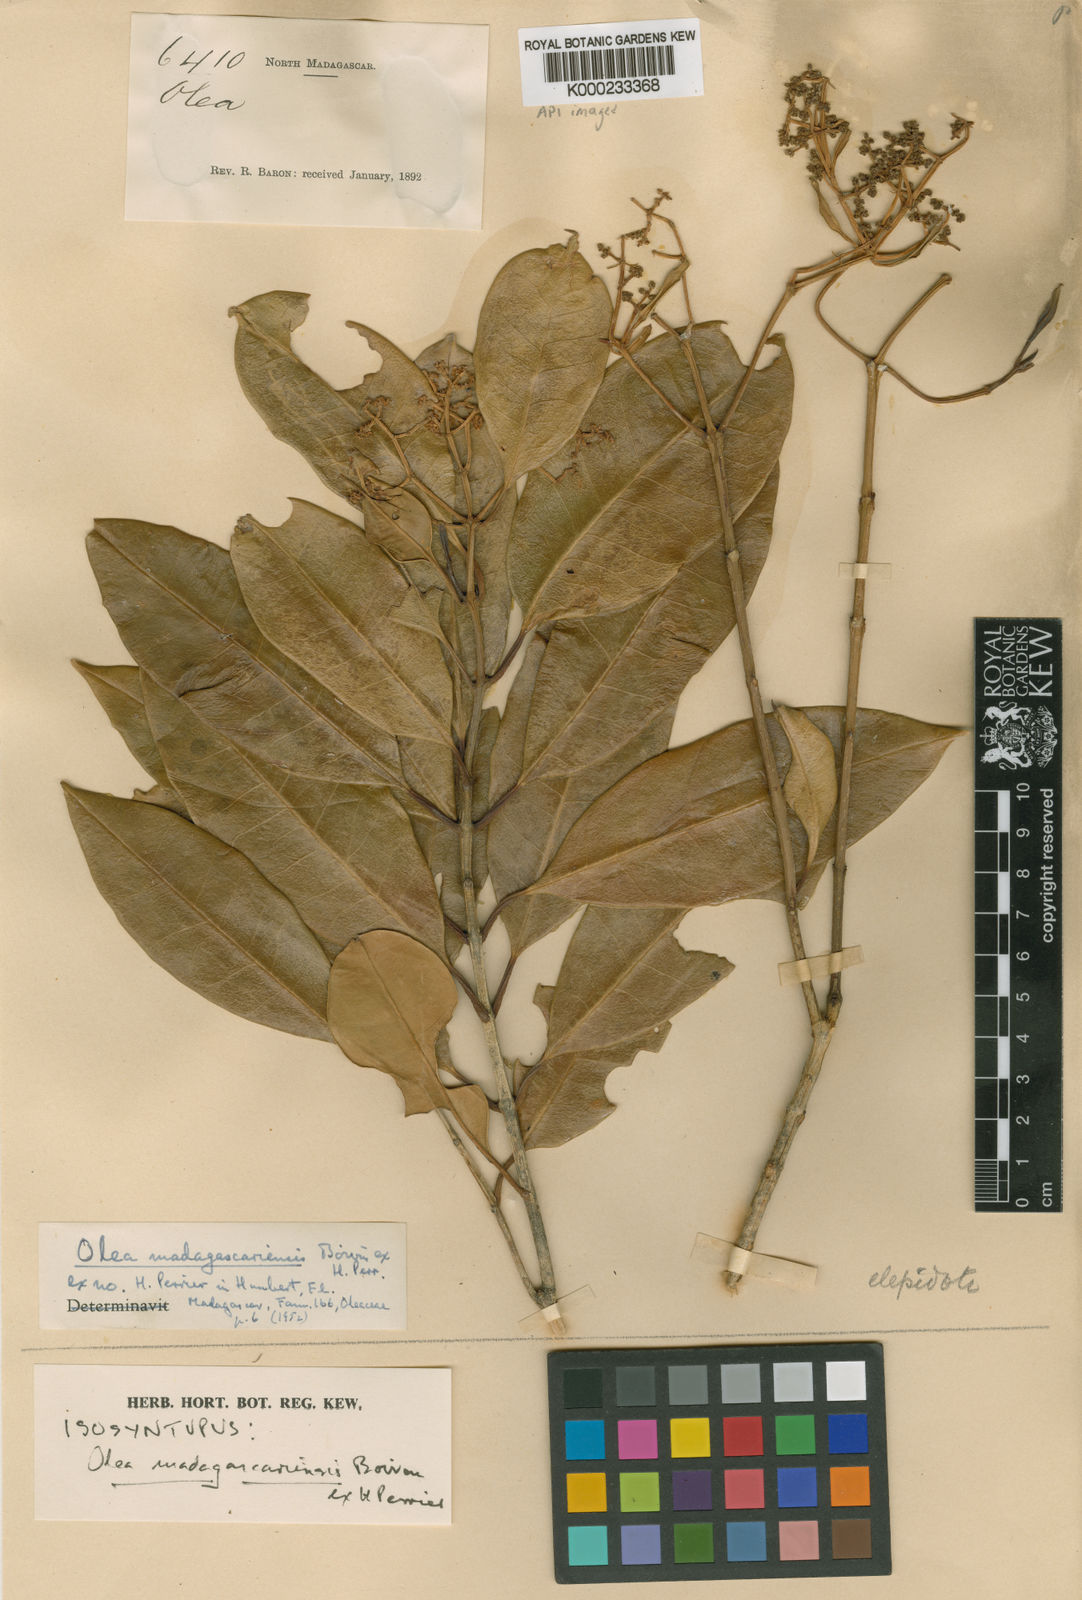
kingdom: Plantae
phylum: Tracheophyta
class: Magnoliopsida
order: Lamiales
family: Oleaceae
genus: Olea
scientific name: Olea capensis
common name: Black ironwood
